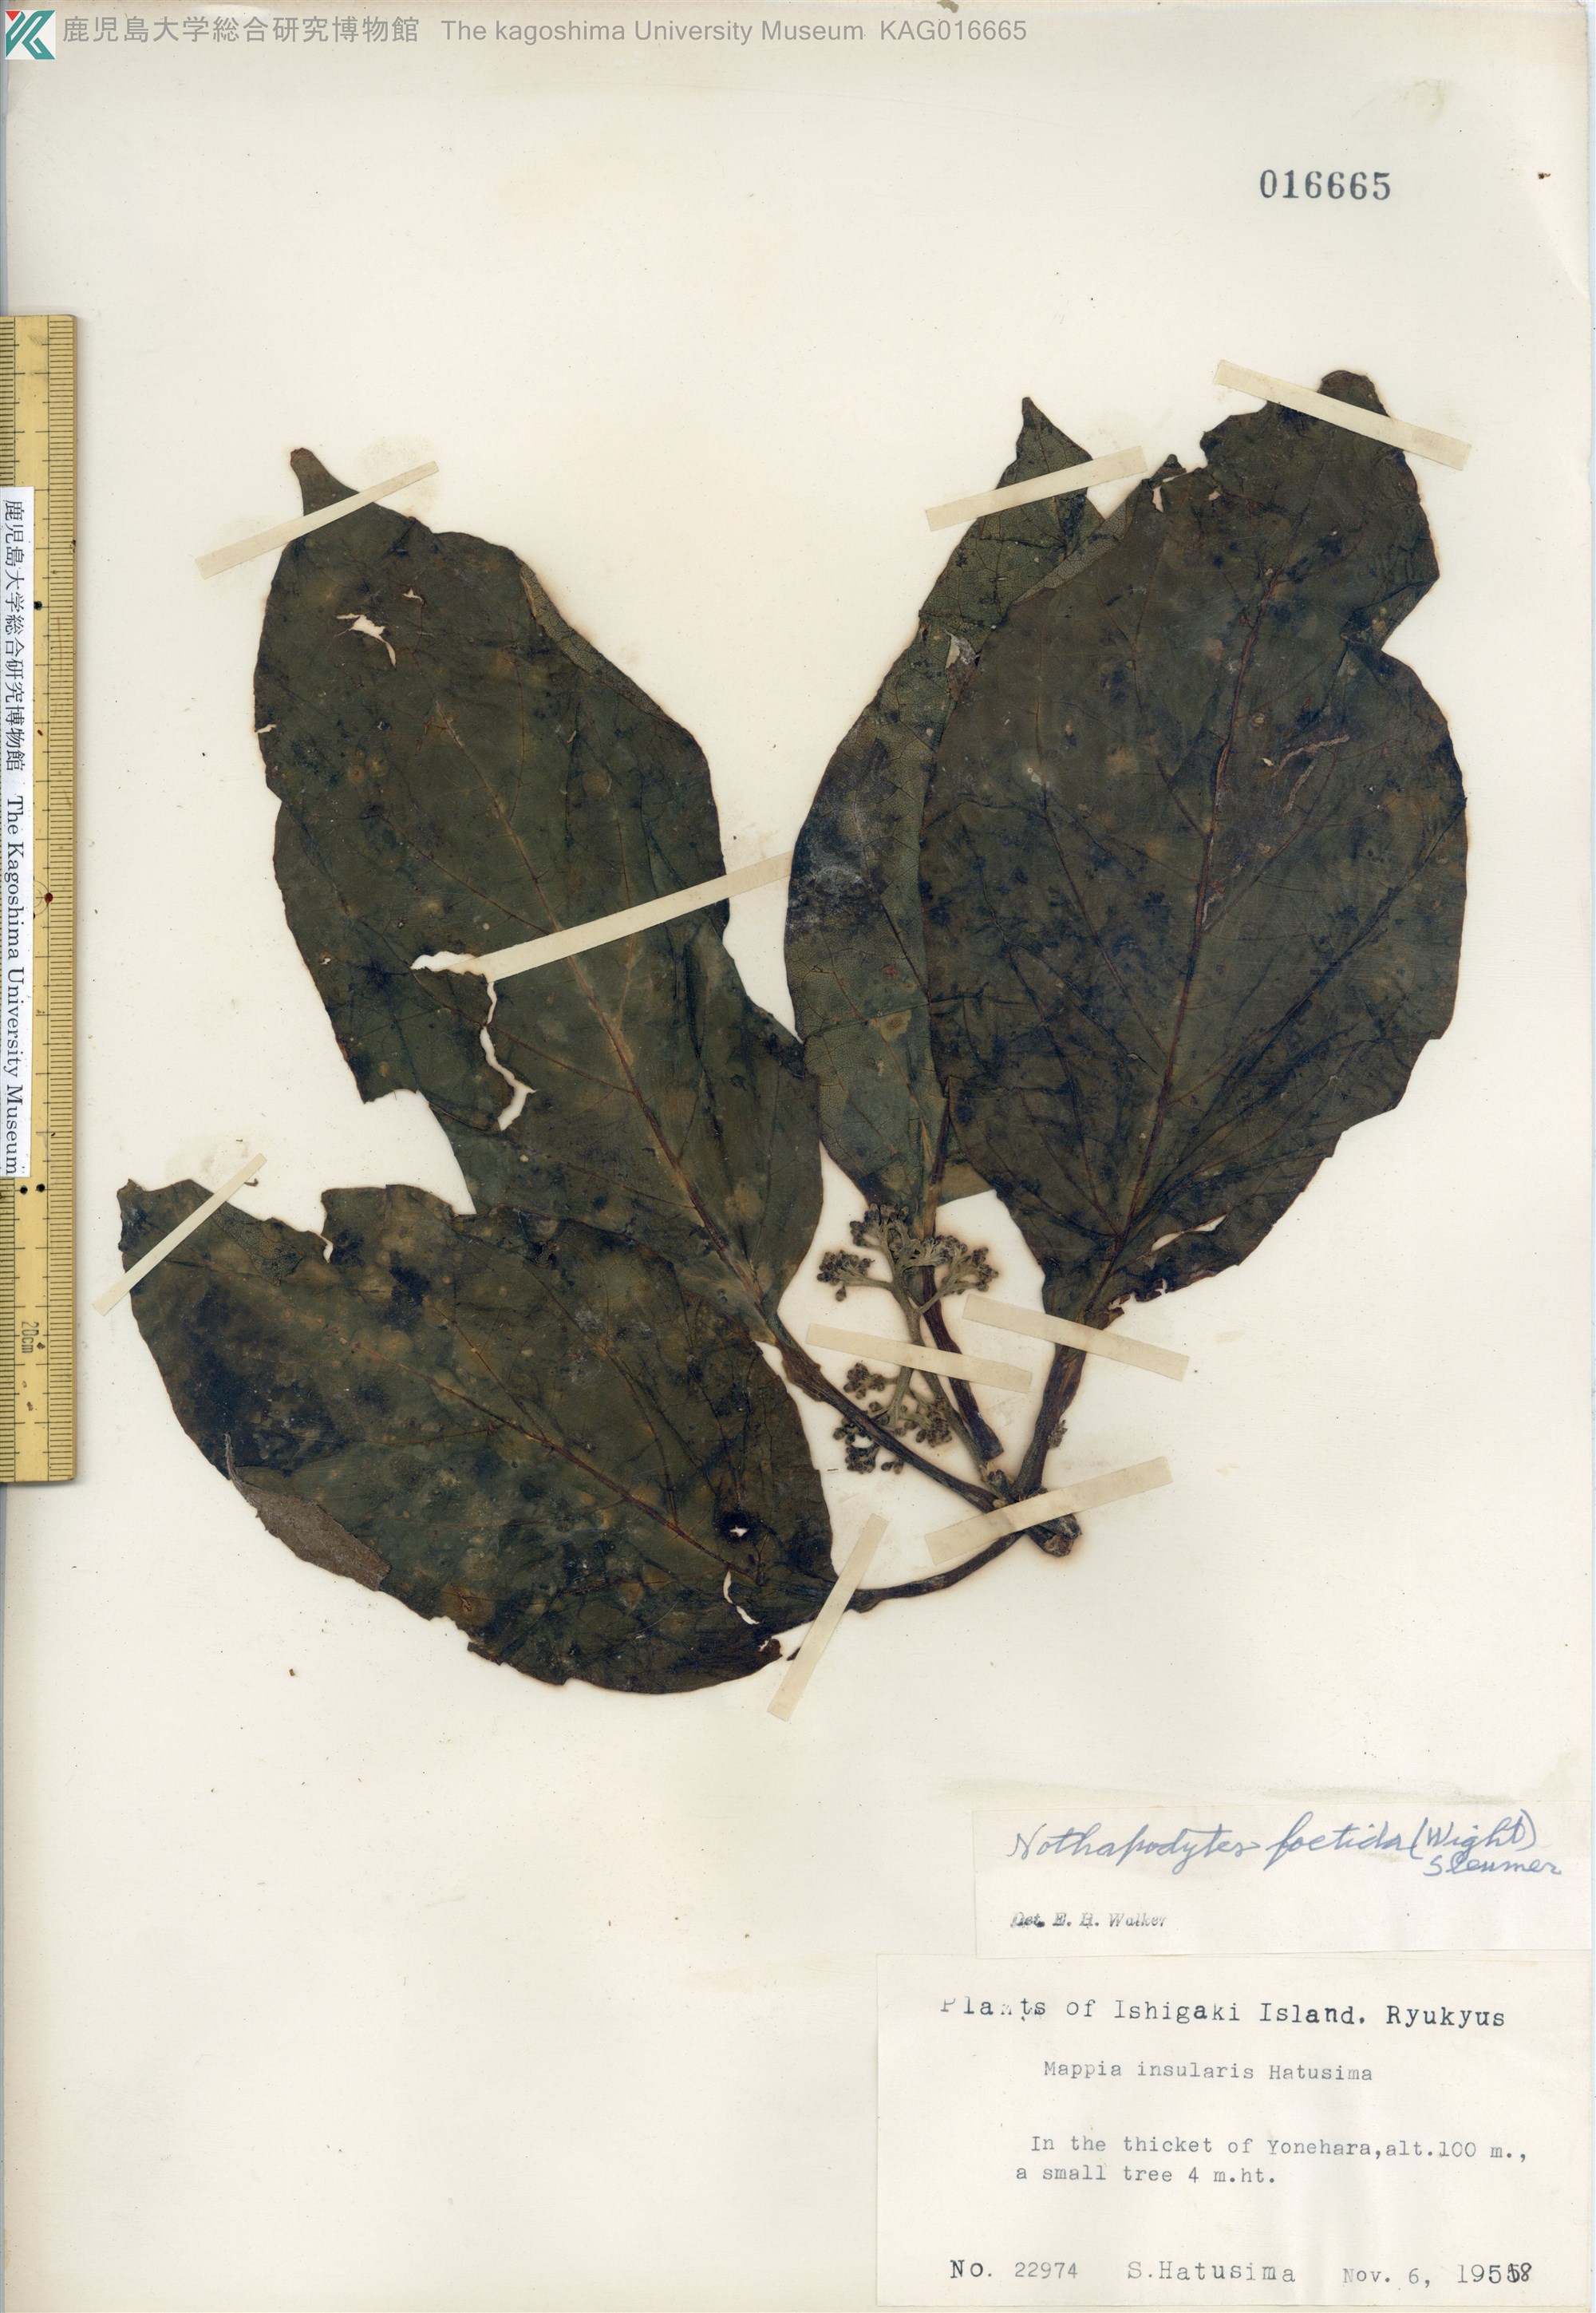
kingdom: Plantae
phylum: Tracheophyta
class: Magnoliopsida
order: Icacinales
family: Icacinaceae
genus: Nothapodytes
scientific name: Nothapodytes nimmoniana
